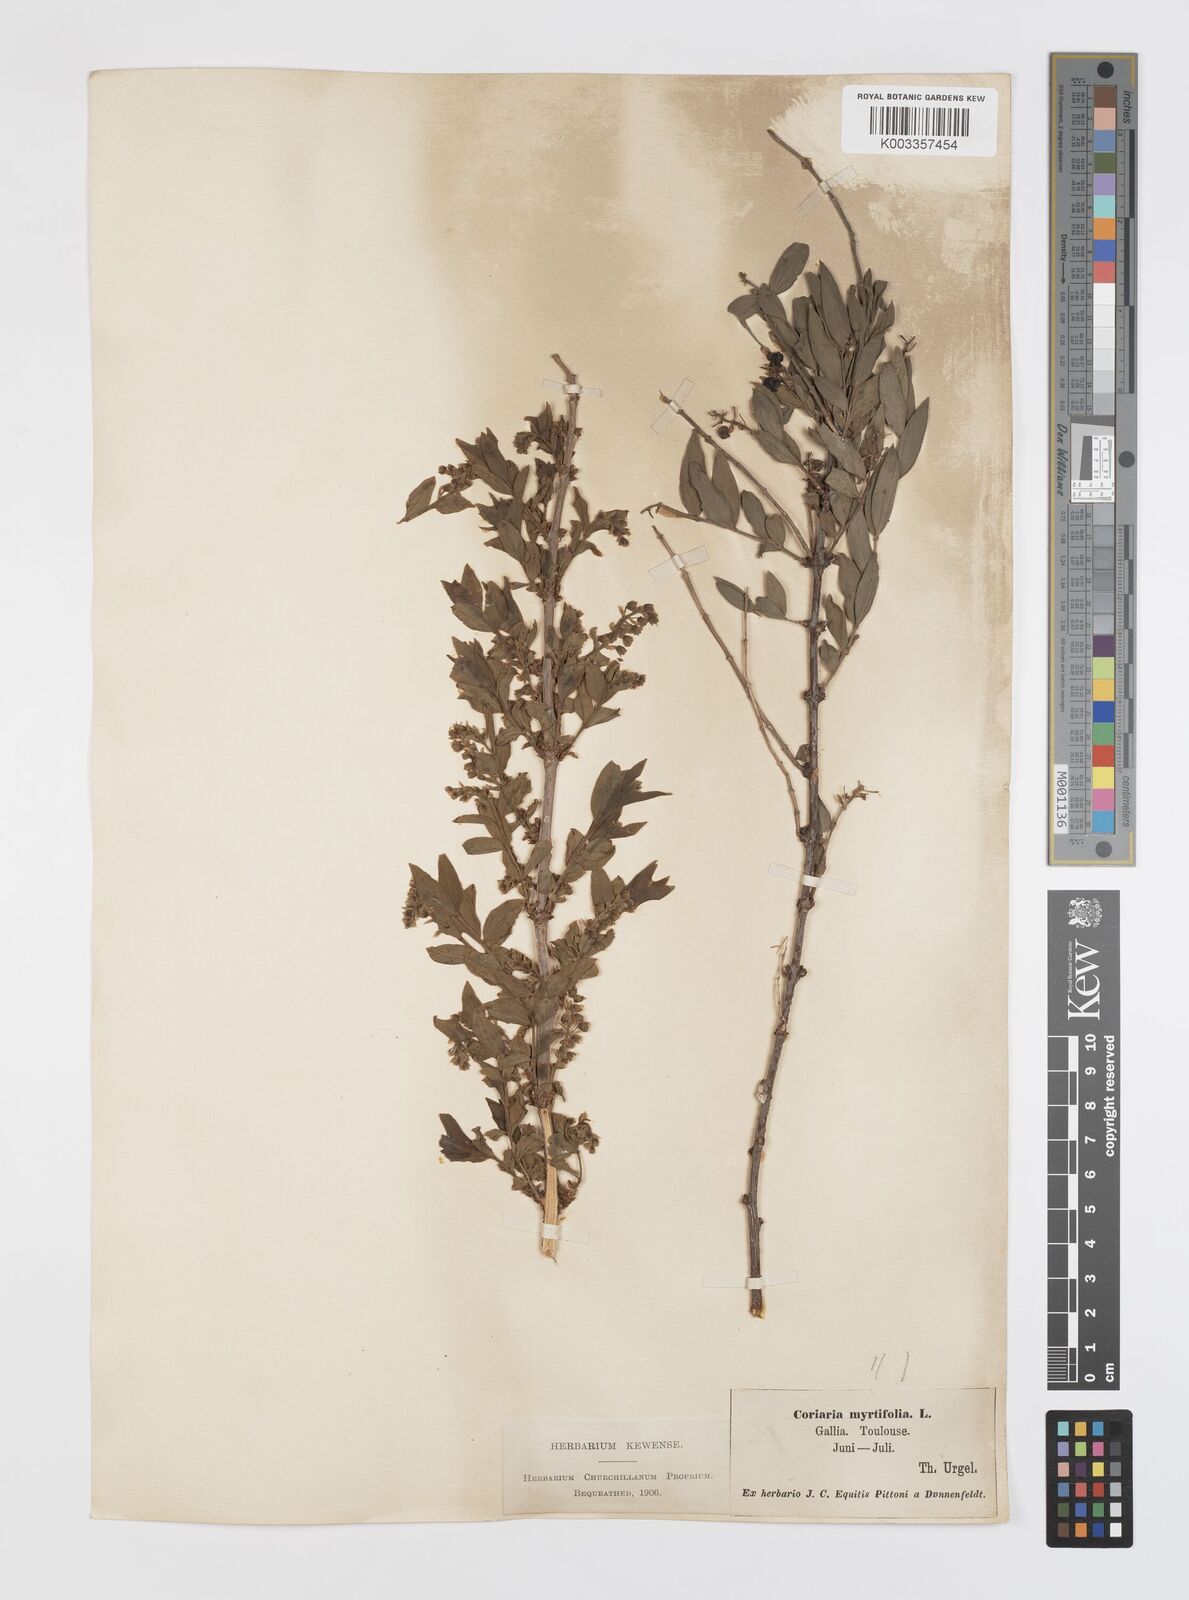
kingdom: Plantae
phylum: Tracheophyta
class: Magnoliopsida
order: Cucurbitales
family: Coriariaceae
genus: Coriaria
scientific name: Coriaria myrtifolia
